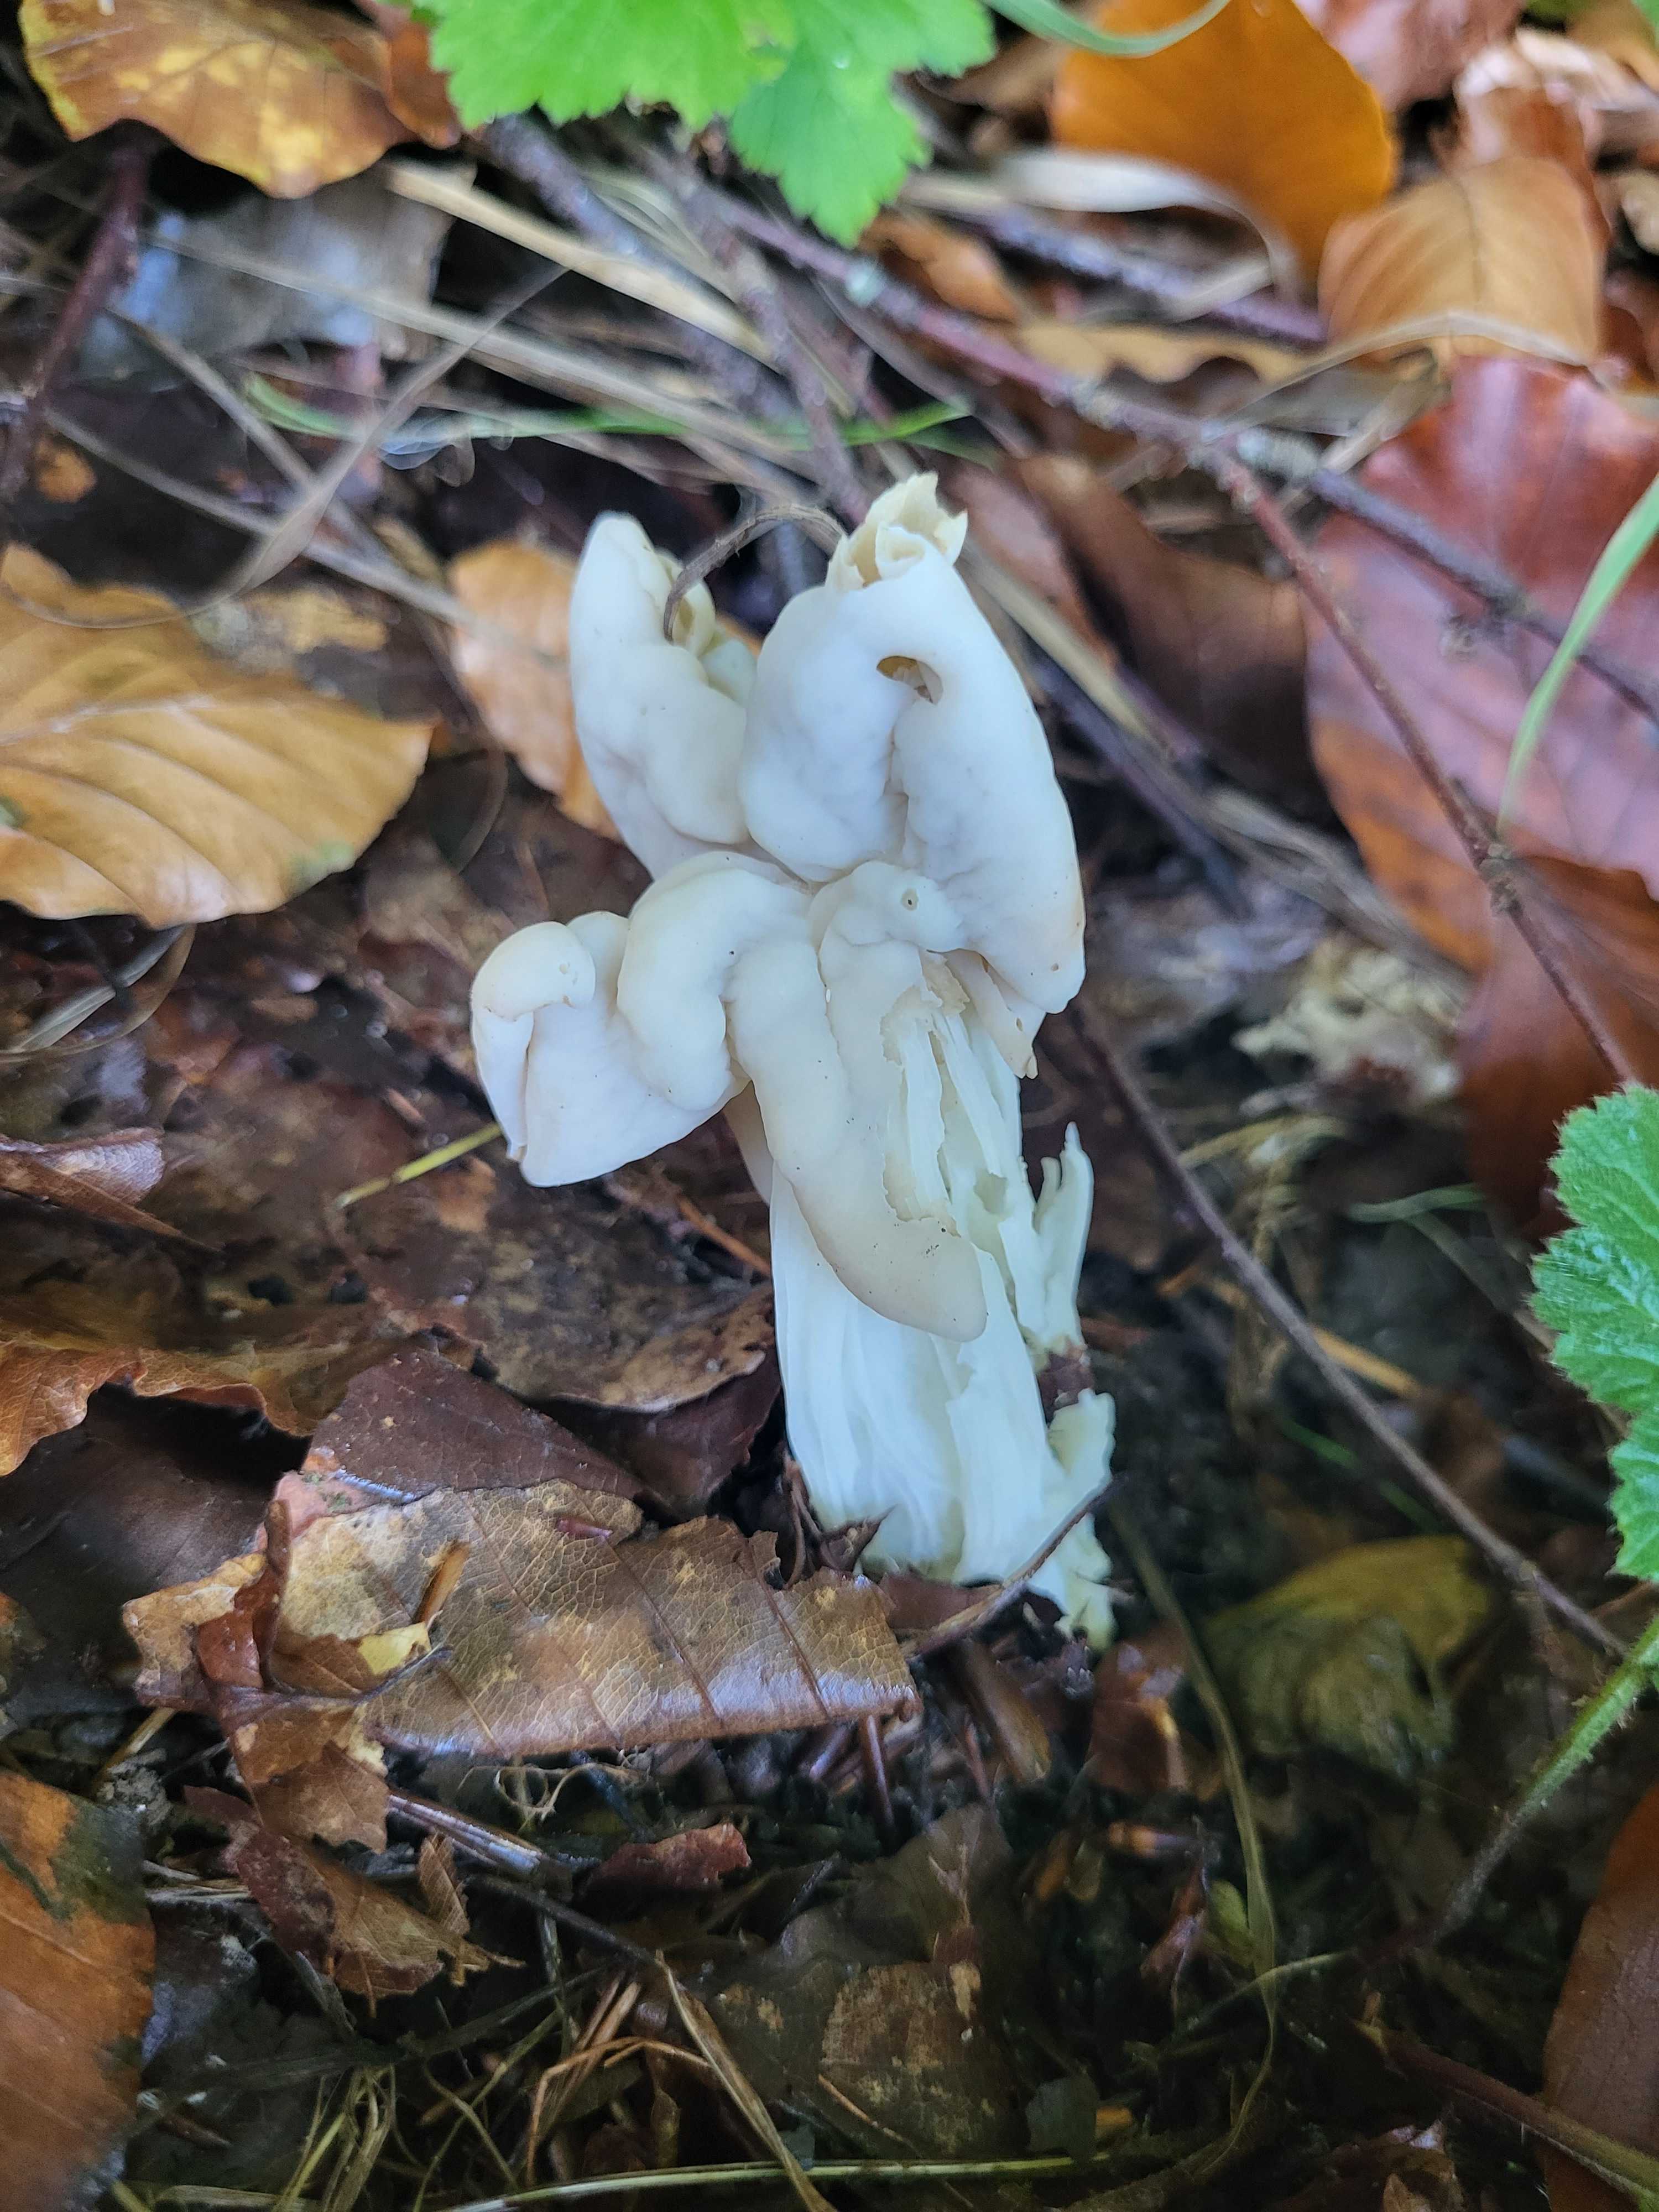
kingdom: Fungi
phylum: Ascomycota
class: Pezizomycetes
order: Pezizales
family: Helvellaceae
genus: Helvella
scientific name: Helvella crispa
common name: kruset foldhat
